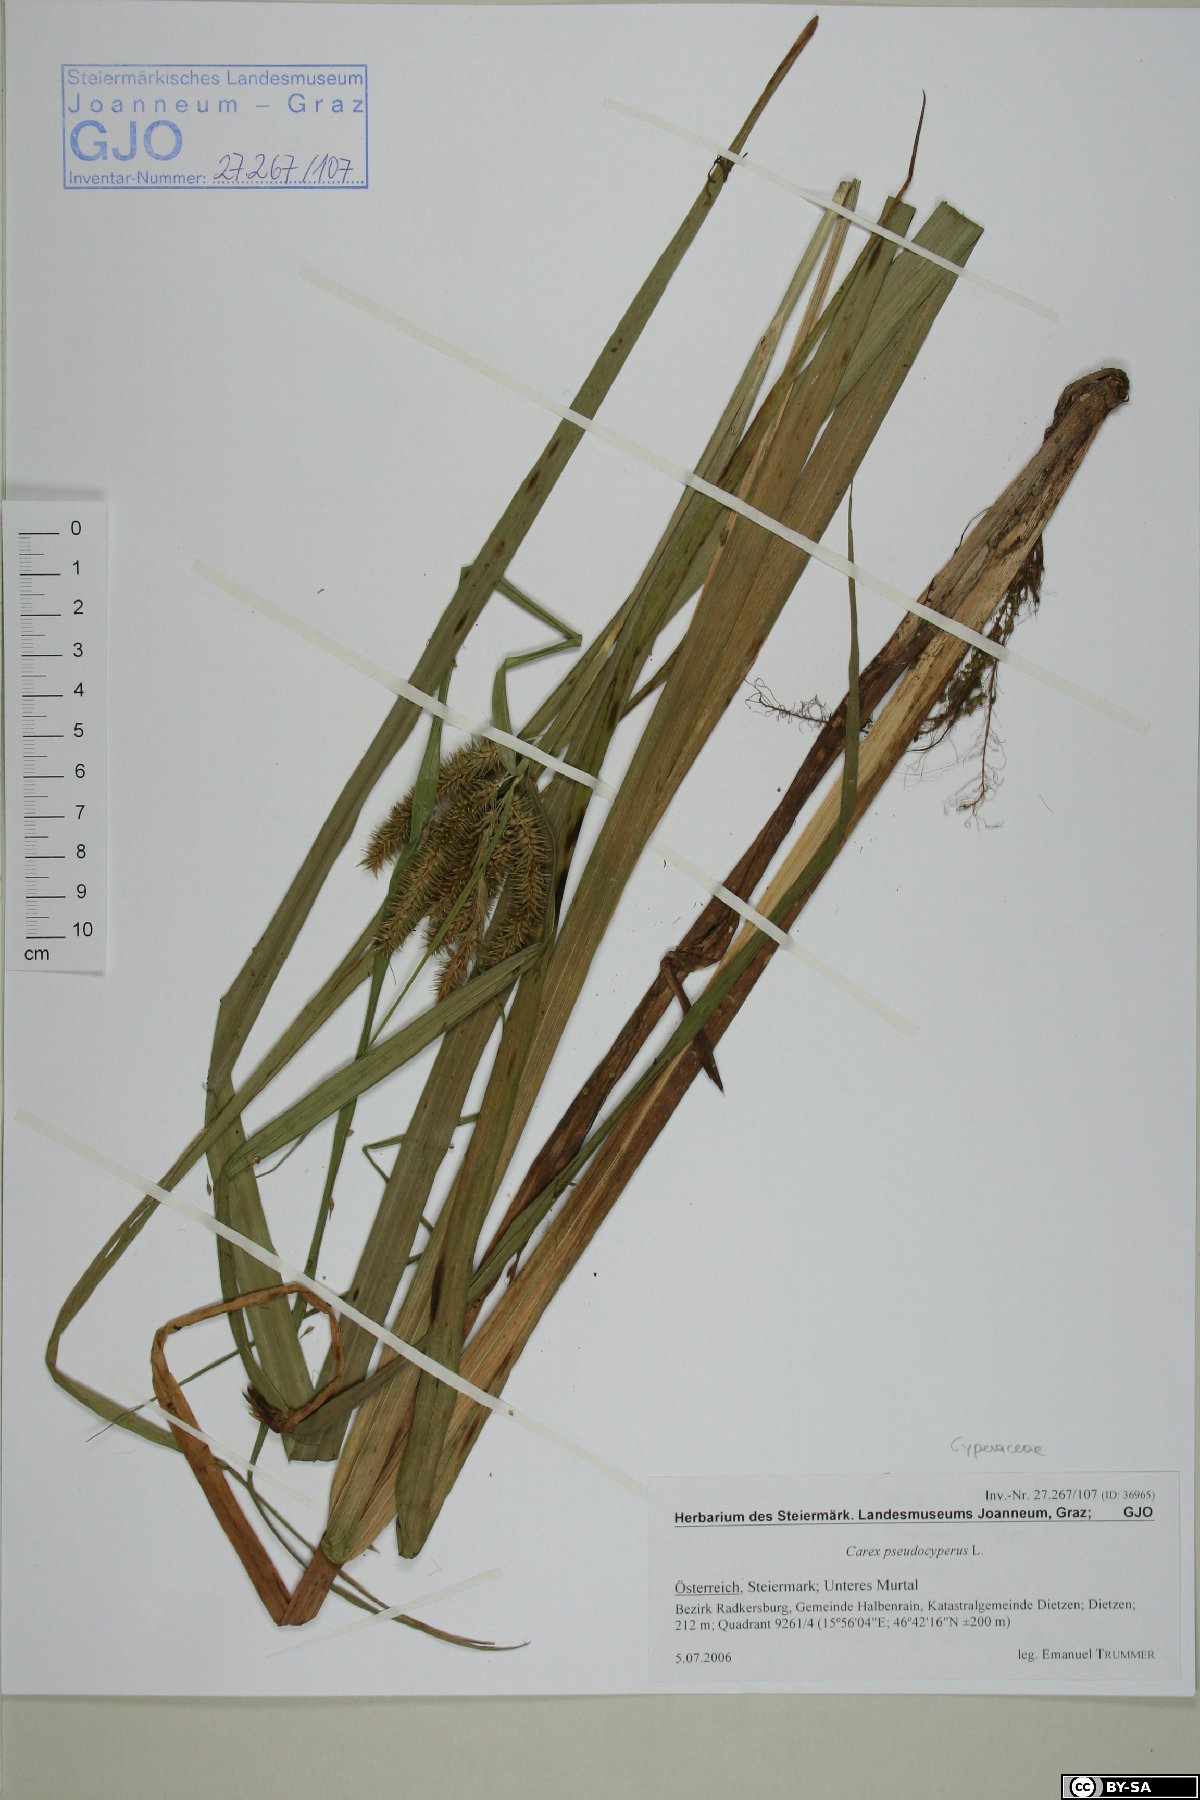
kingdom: Plantae
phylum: Tracheophyta
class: Liliopsida
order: Poales
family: Cyperaceae
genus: Carex
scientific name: Carex pseudocyperus
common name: Cyperus sedge
